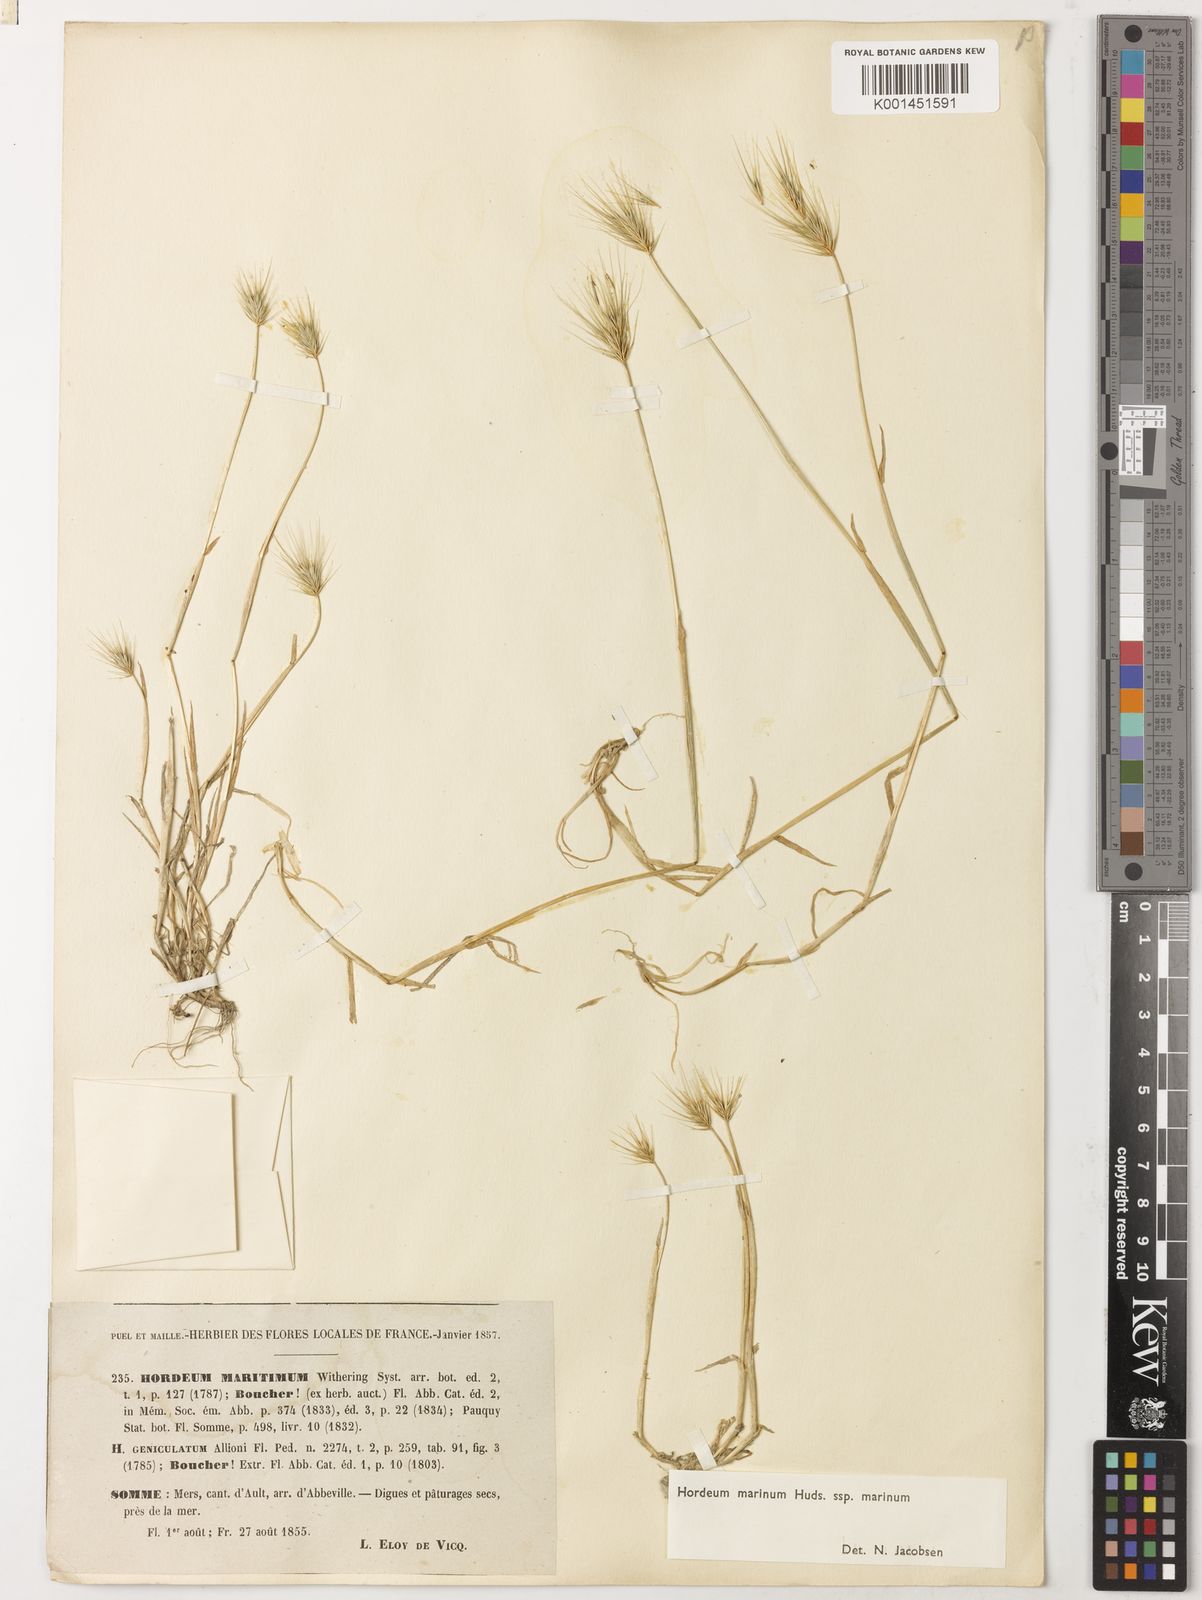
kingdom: Plantae
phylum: Tracheophyta
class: Liliopsida
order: Poales
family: Poaceae
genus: Hordeum
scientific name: Hordeum marinum
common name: Sea barley
